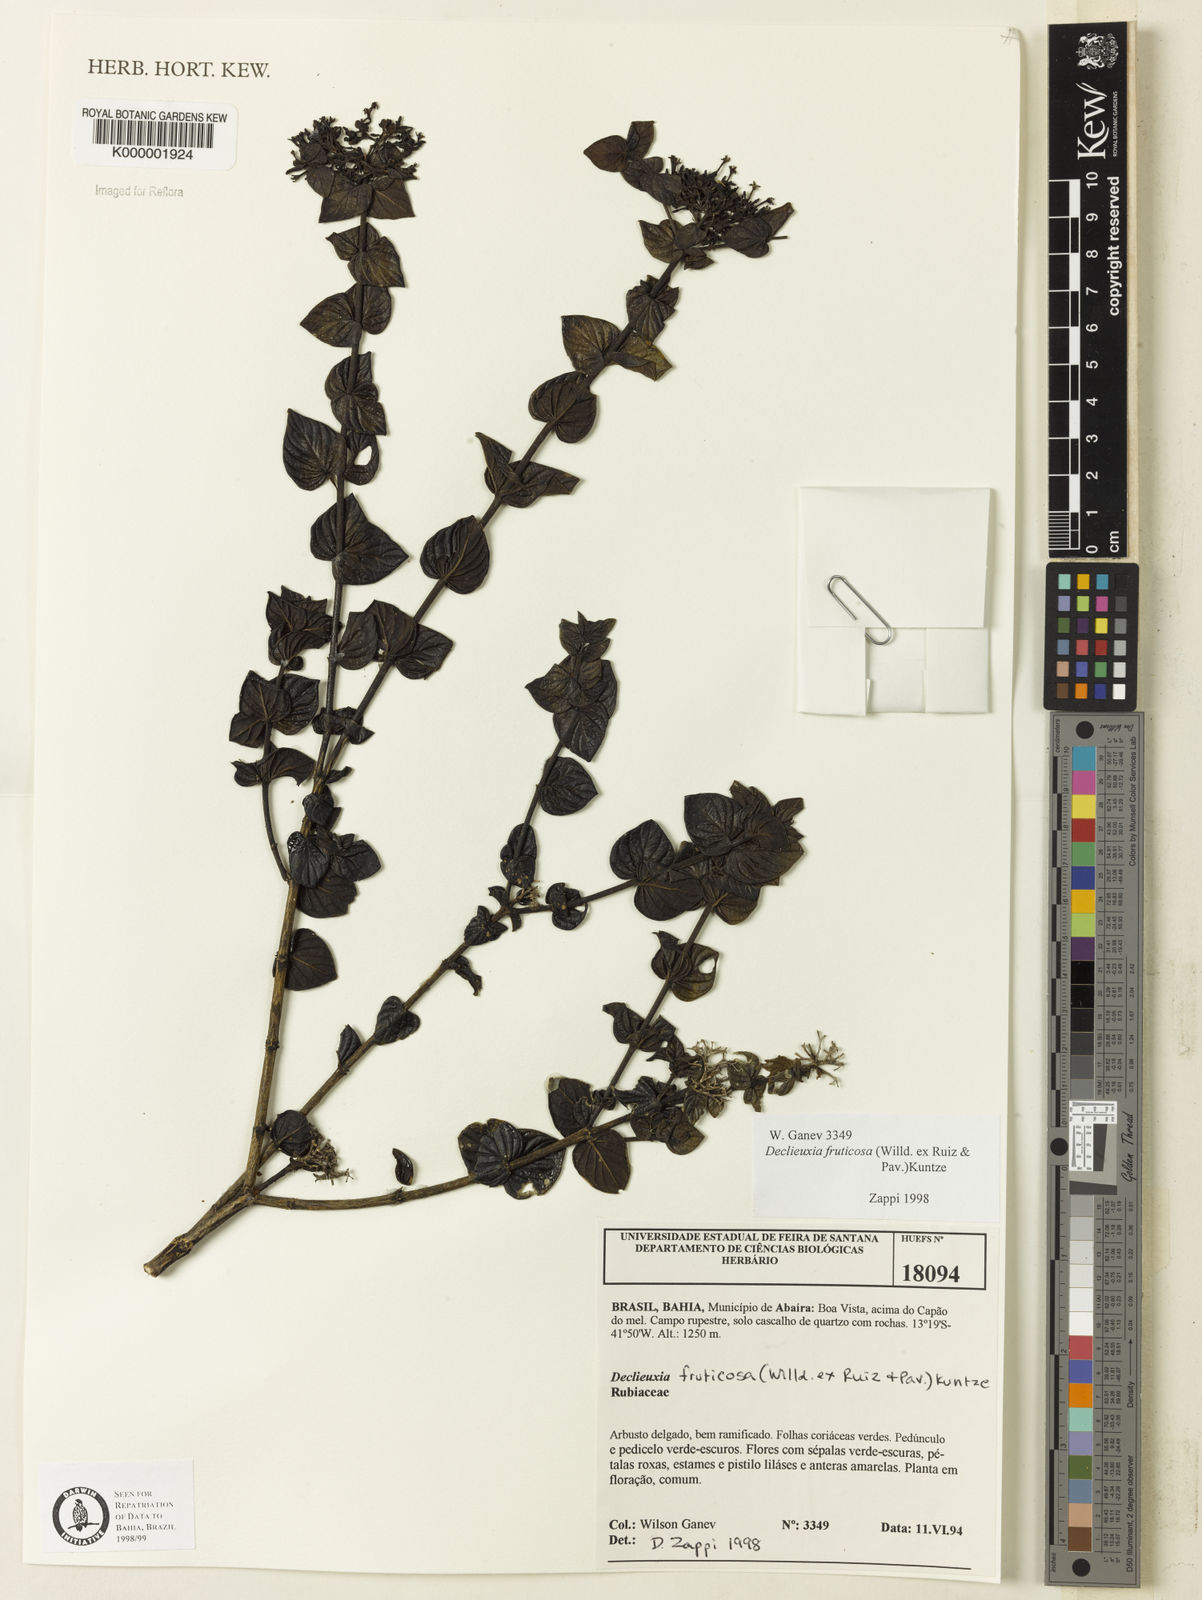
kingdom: Plantae
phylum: Tracheophyta
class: Magnoliopsida
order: Gentianales
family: Rubiaceae
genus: Declieuxia
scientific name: Declieuxia fruticosa
